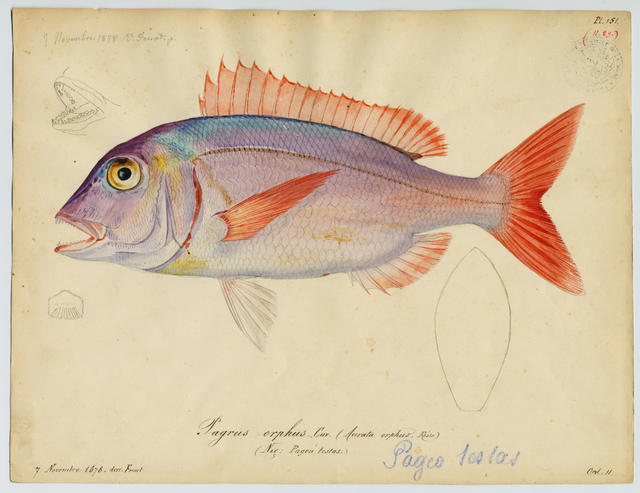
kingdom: Animalia
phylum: Chordata
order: Perciformes
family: Sparidae
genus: Pagellus
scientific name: Pagellus erythrinus
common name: Pandora
